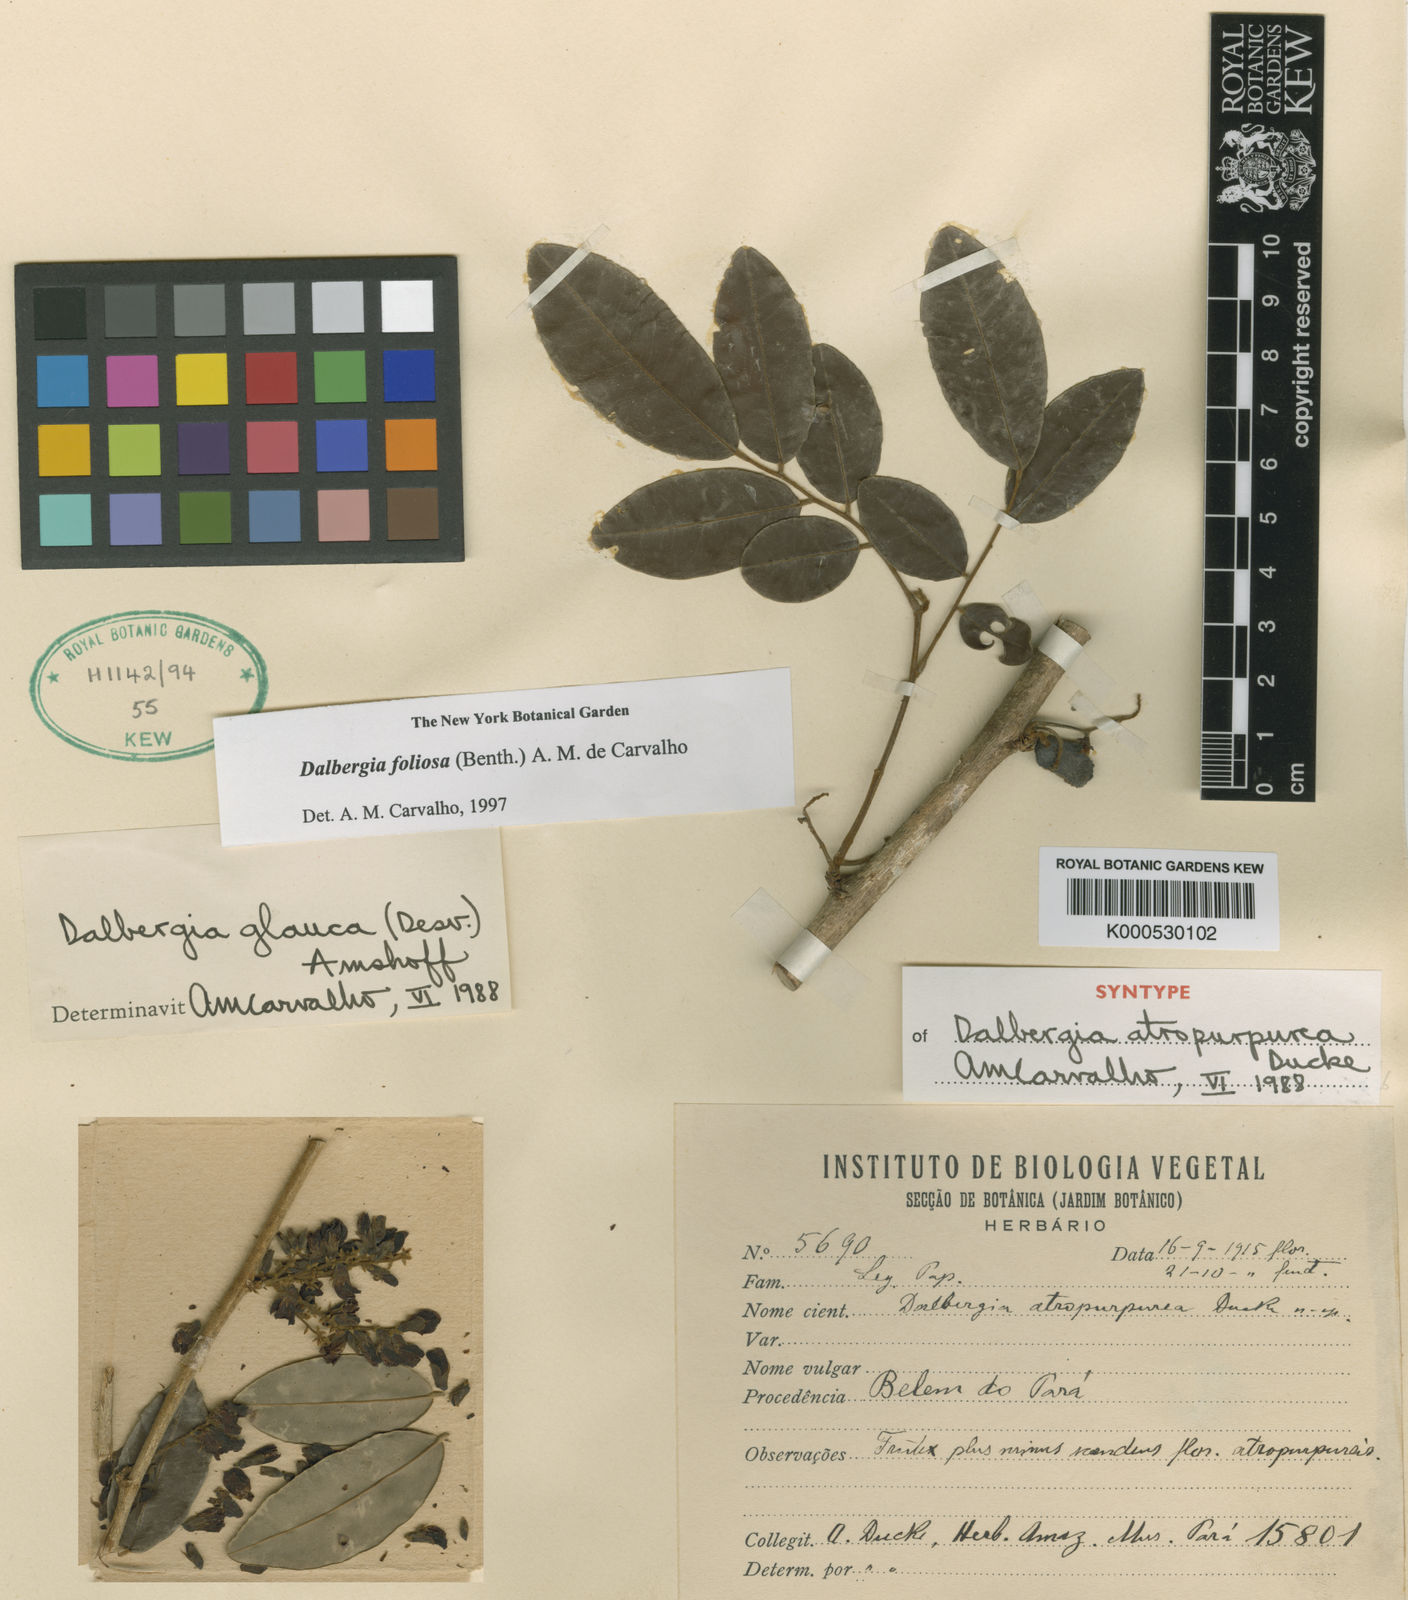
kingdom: Plantae
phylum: Tracheophyta
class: Magnoliopsida
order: Fabales
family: Fabaceae
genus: Dalbergia
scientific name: Dalbergia atropurpurea
